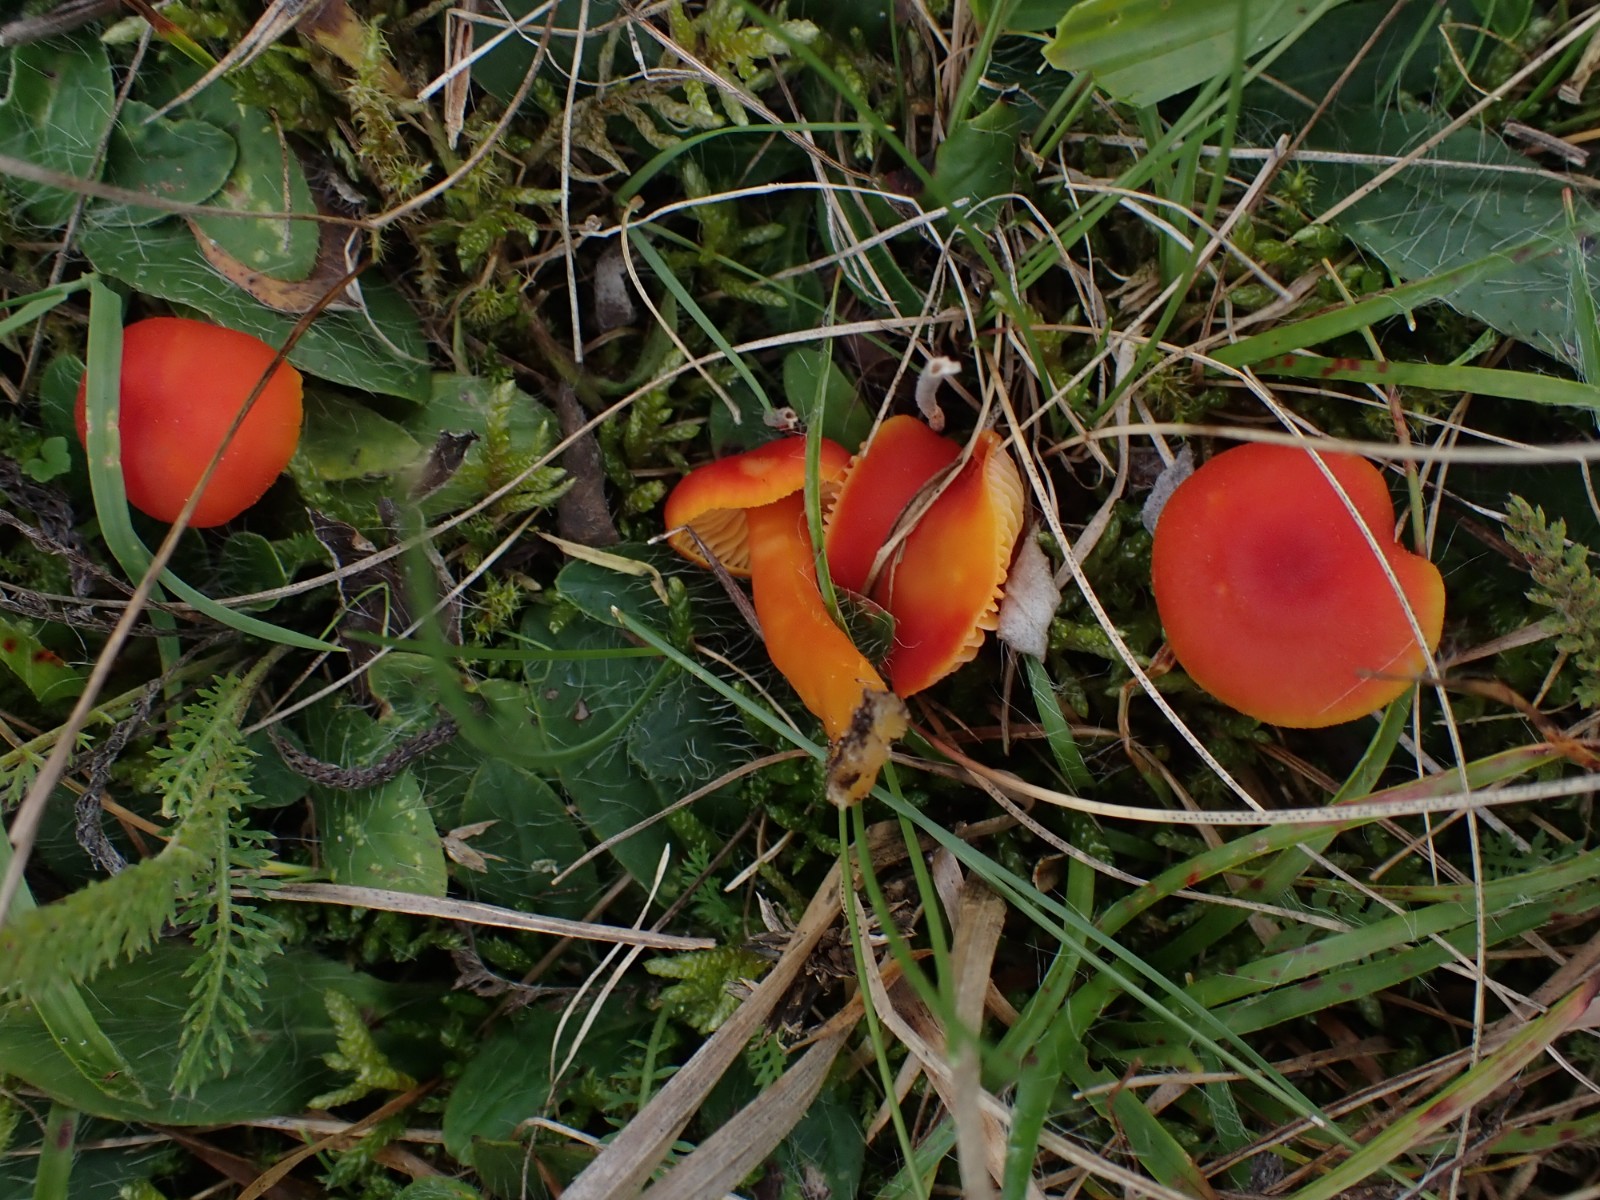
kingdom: Fungi
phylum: Basidiomycota
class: Agaricomycetes
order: Agaricales
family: Hygrophoraceae
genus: Hygrocybe
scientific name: Hygrocybe miniata
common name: mønje-vokshat
